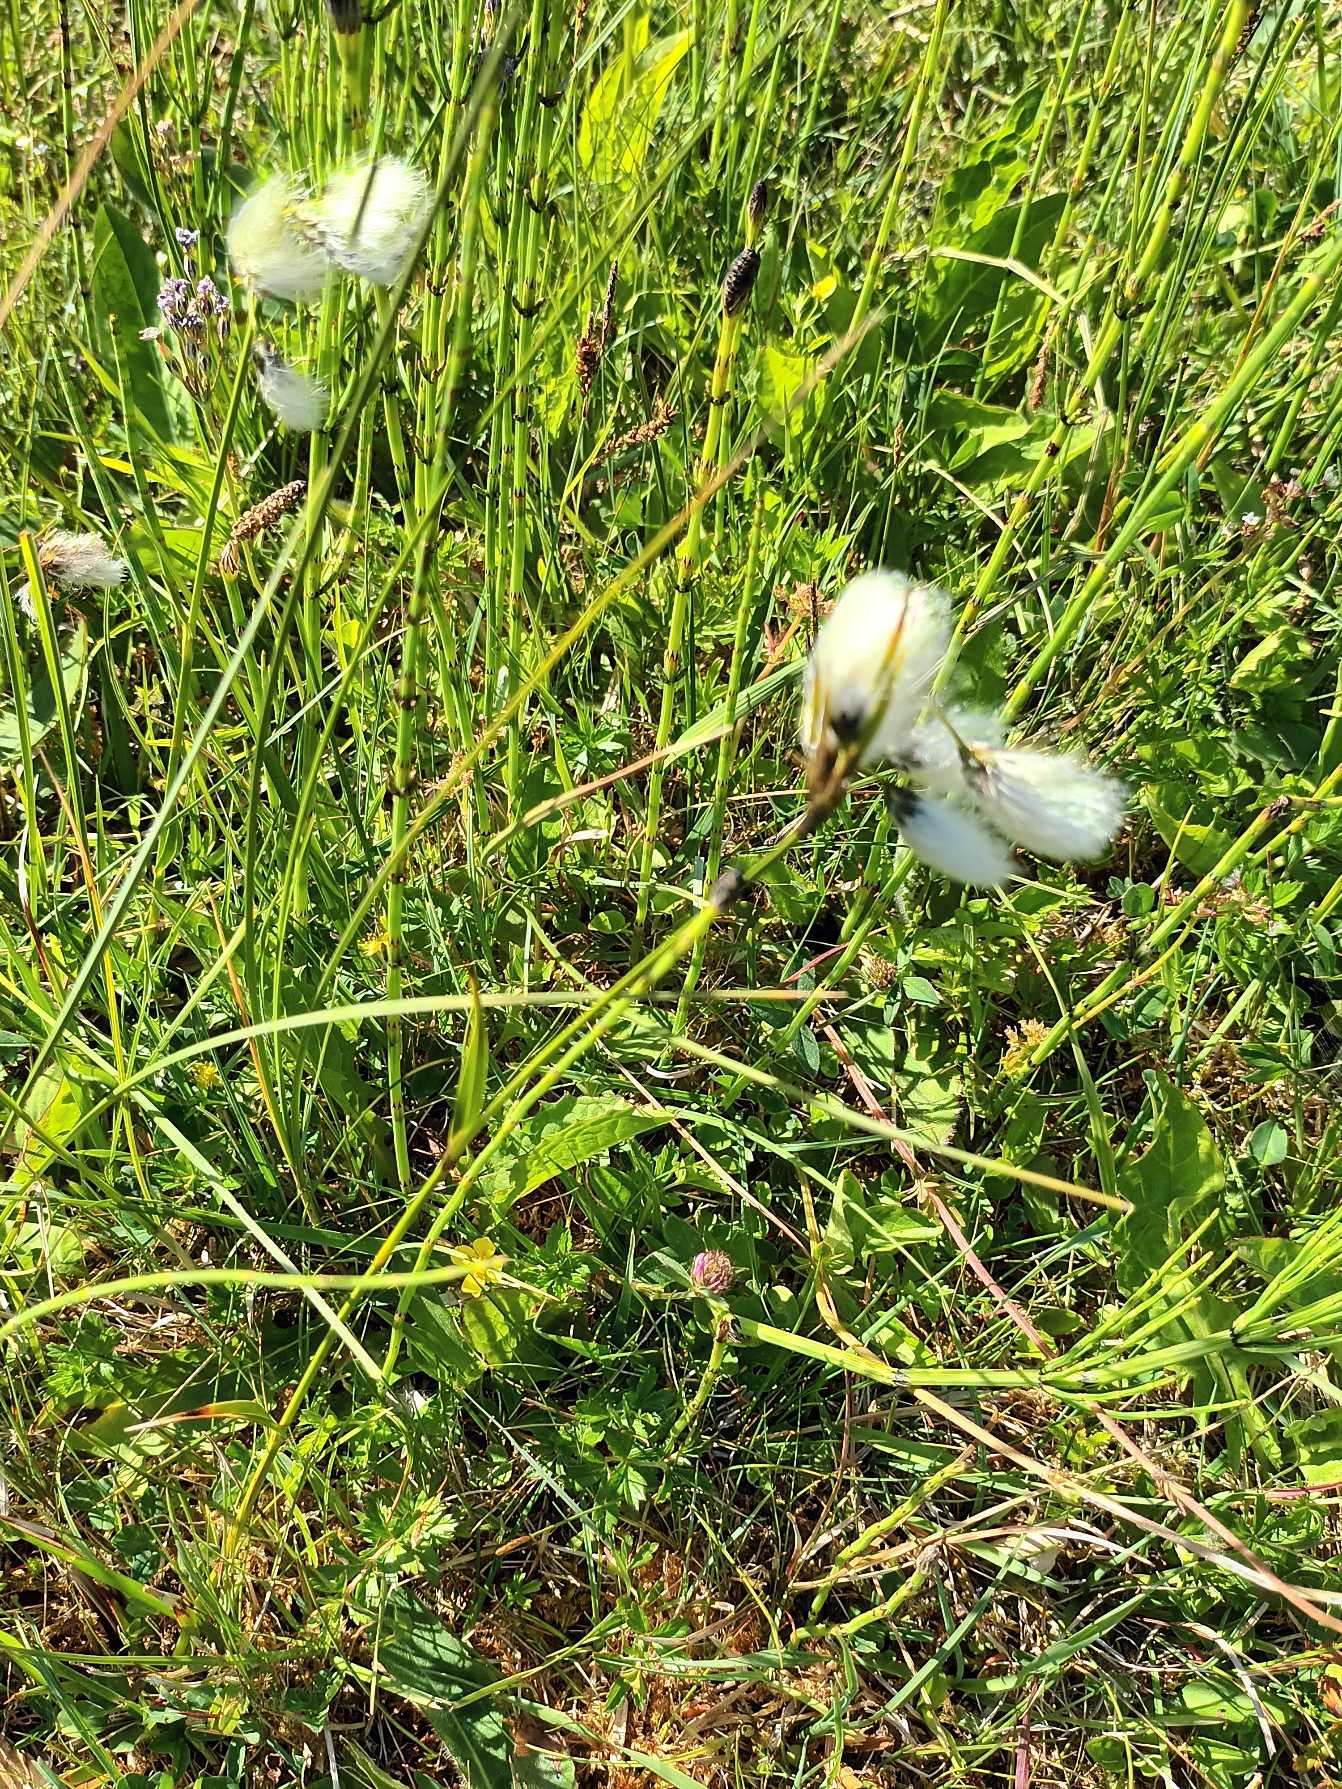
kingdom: Plantae
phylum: Tracheophyta
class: Liliopsida
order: Poales
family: Cyperaceae
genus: Eriophorum
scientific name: Eriophorum latifolium
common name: Bredbladet kæruld
